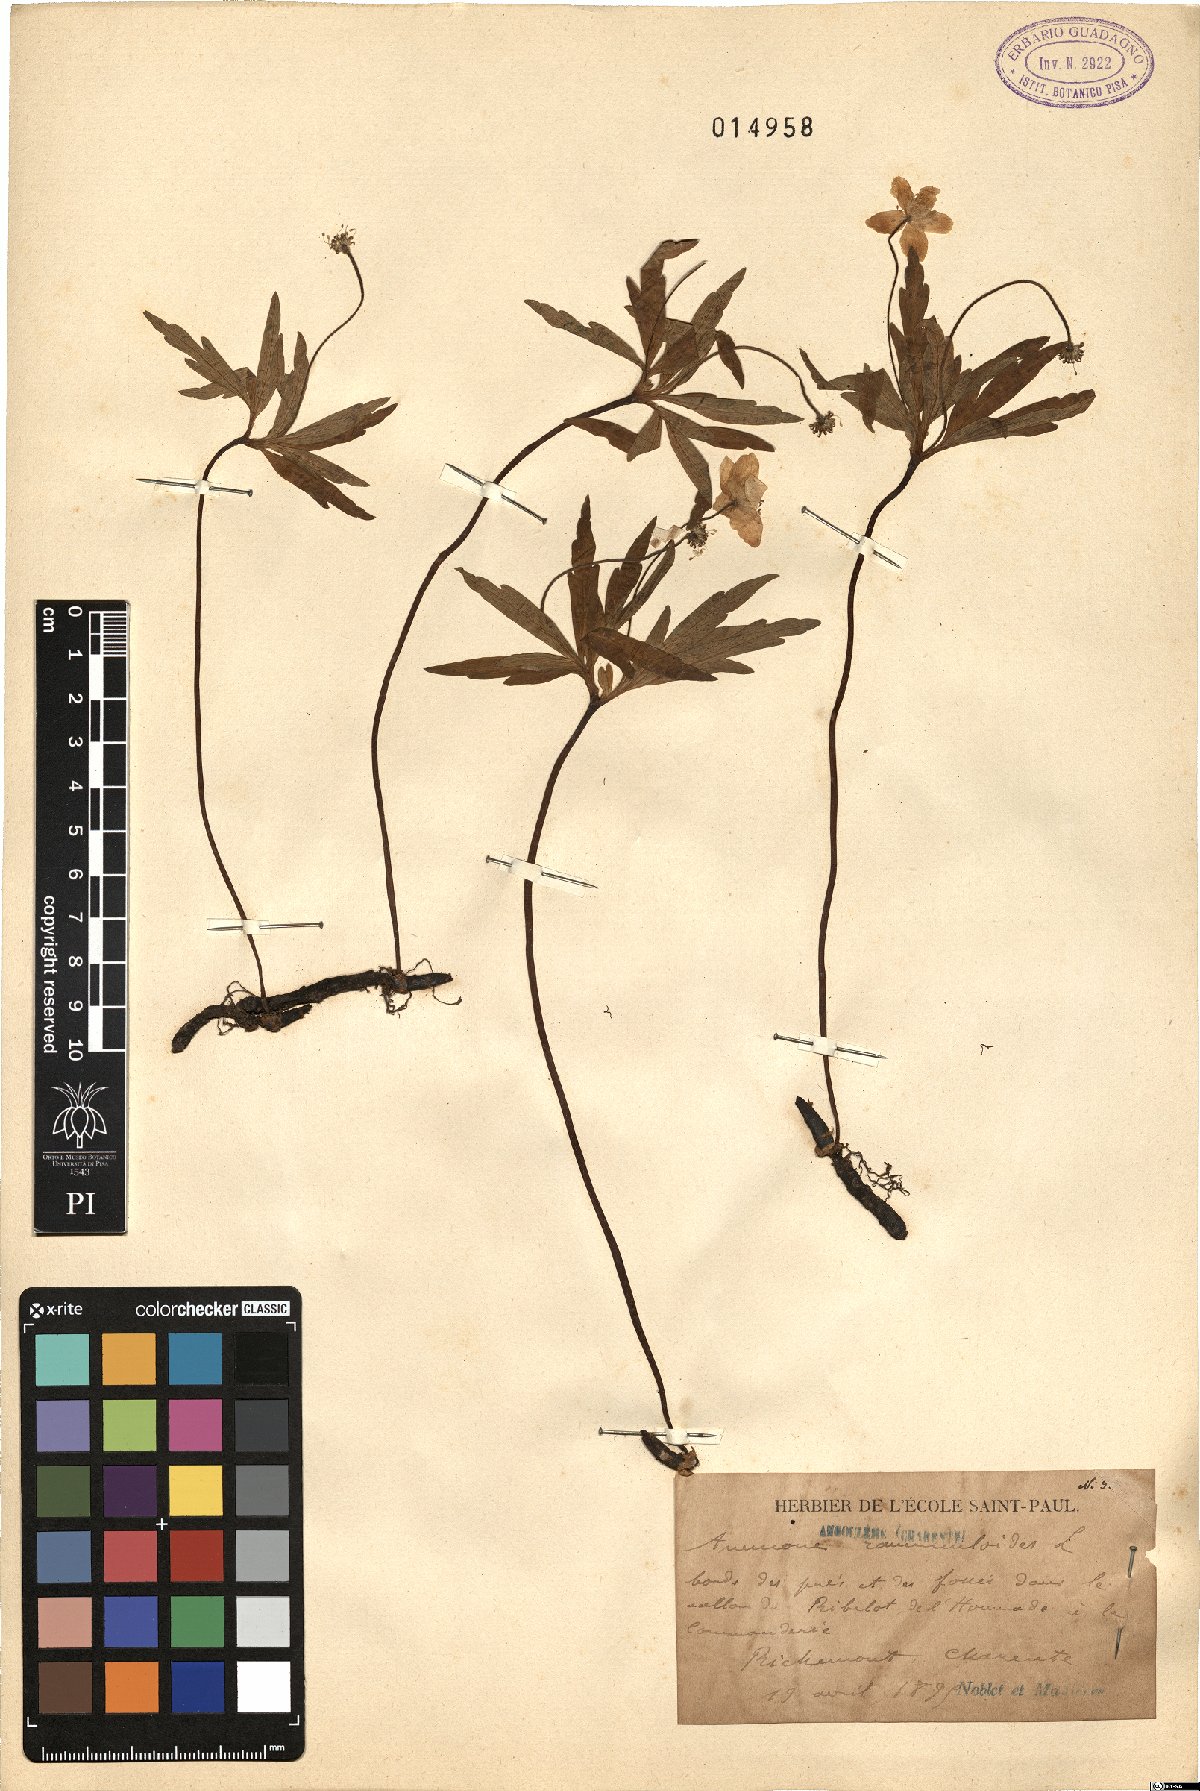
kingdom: Plantae
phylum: Tracheophyta
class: Magnoliopsida
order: Ranunculales
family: Ranunculaceae
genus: Anemone
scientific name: Anemone ranunculoides
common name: Yellow anemone
